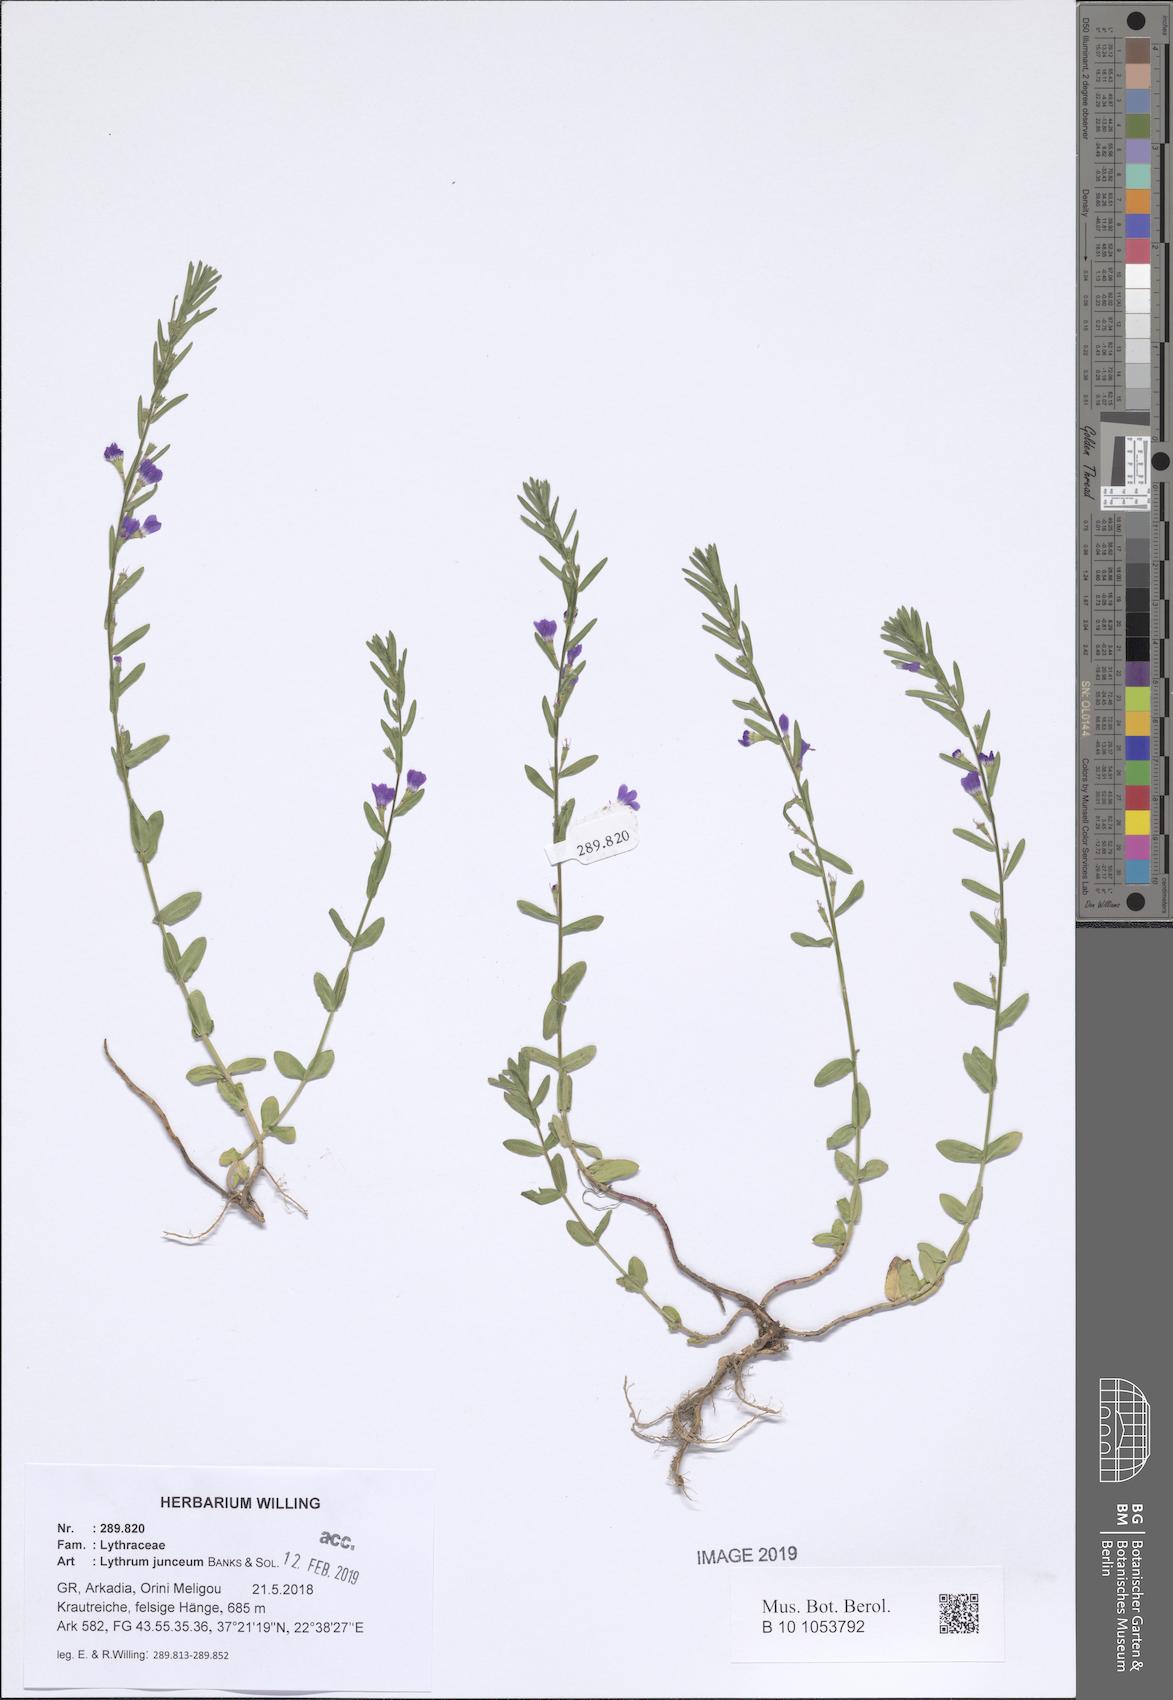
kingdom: Plantae
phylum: Tracheophyta
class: Magnoliopsida
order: Myrtales
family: Lythraceae
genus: Lythrum
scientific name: Lythrum junceum
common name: False grass-poly
